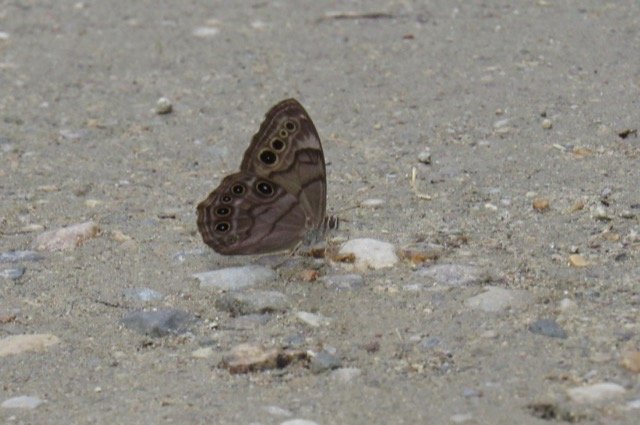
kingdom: Animalia
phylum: Arthropoda
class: Insecta
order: Lepidoptera
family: Nymphalidae
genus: Lethe
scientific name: Lethe anthedon
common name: Northern Pearly-Eye
